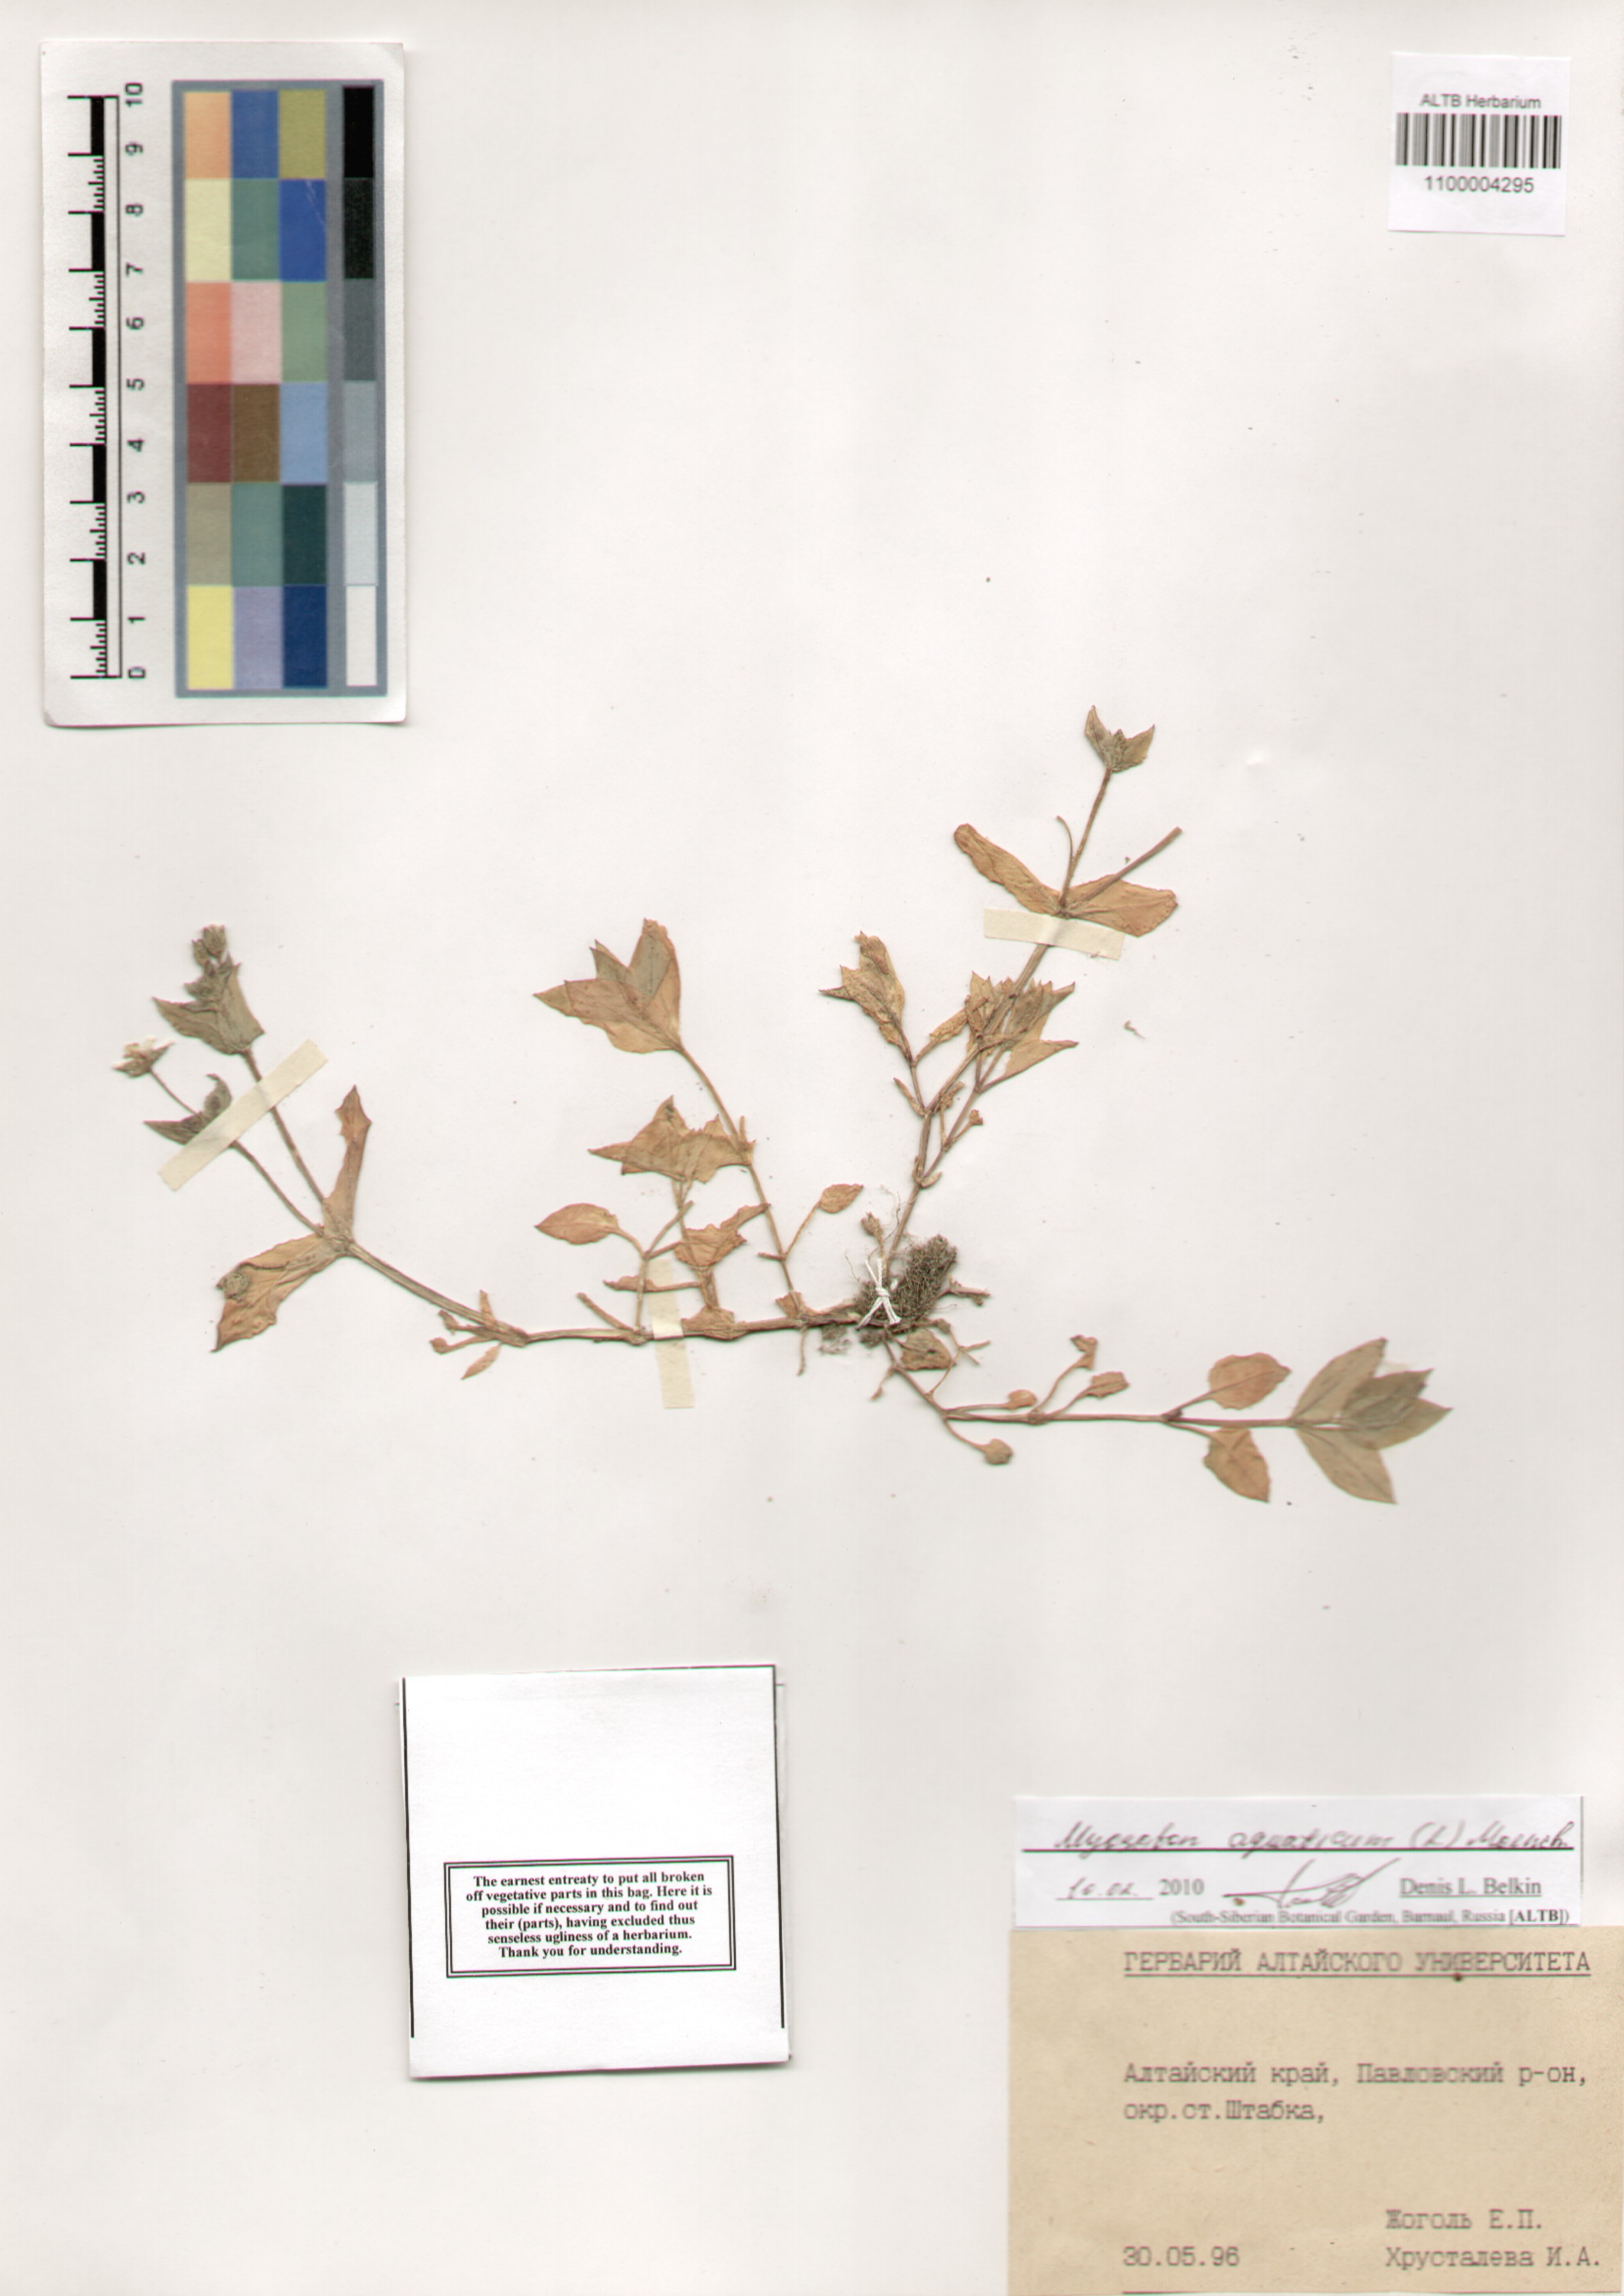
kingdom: Plantae
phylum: Tracheophyta
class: Magnoliopsida
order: Caryophyllales
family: Caryophyllaceae
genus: Stellaria
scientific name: Stellaria aquatica
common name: Water chickweed
